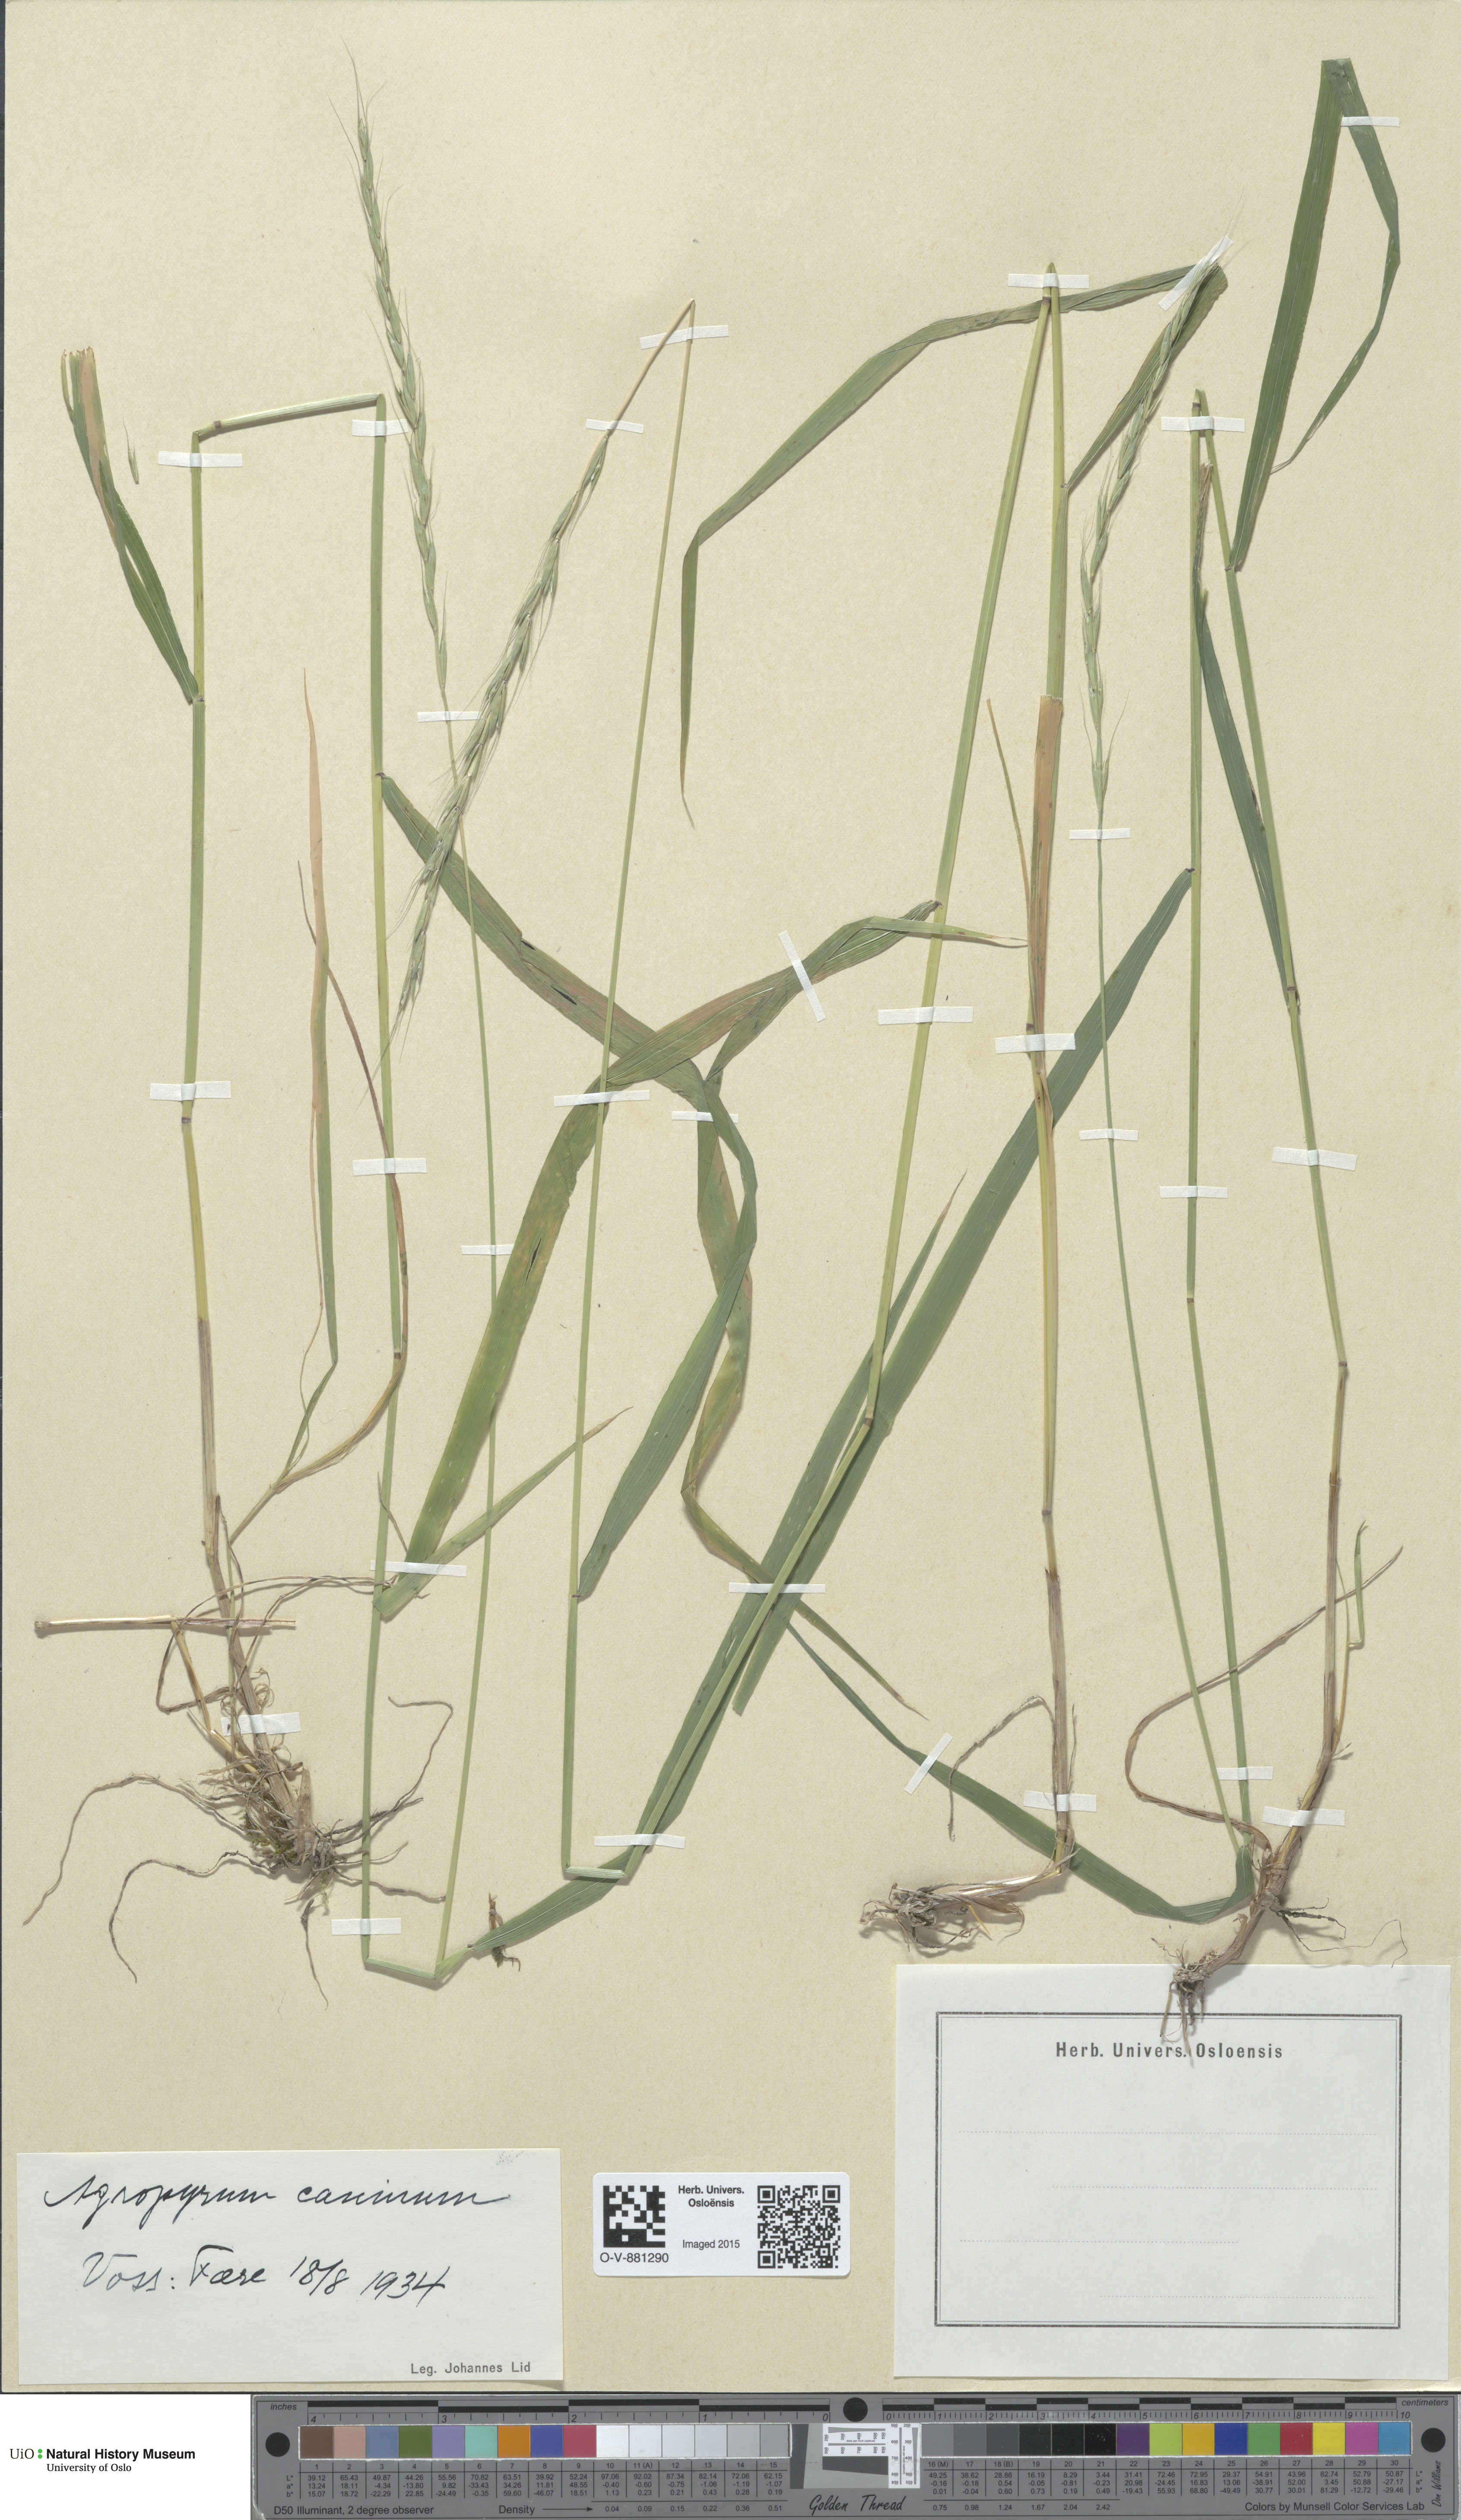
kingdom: Plantae
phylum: Tracheophyta
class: Liliopsida
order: Poales
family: Poaceae
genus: Elymus
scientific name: Elymus caninus
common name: Bearded couch
